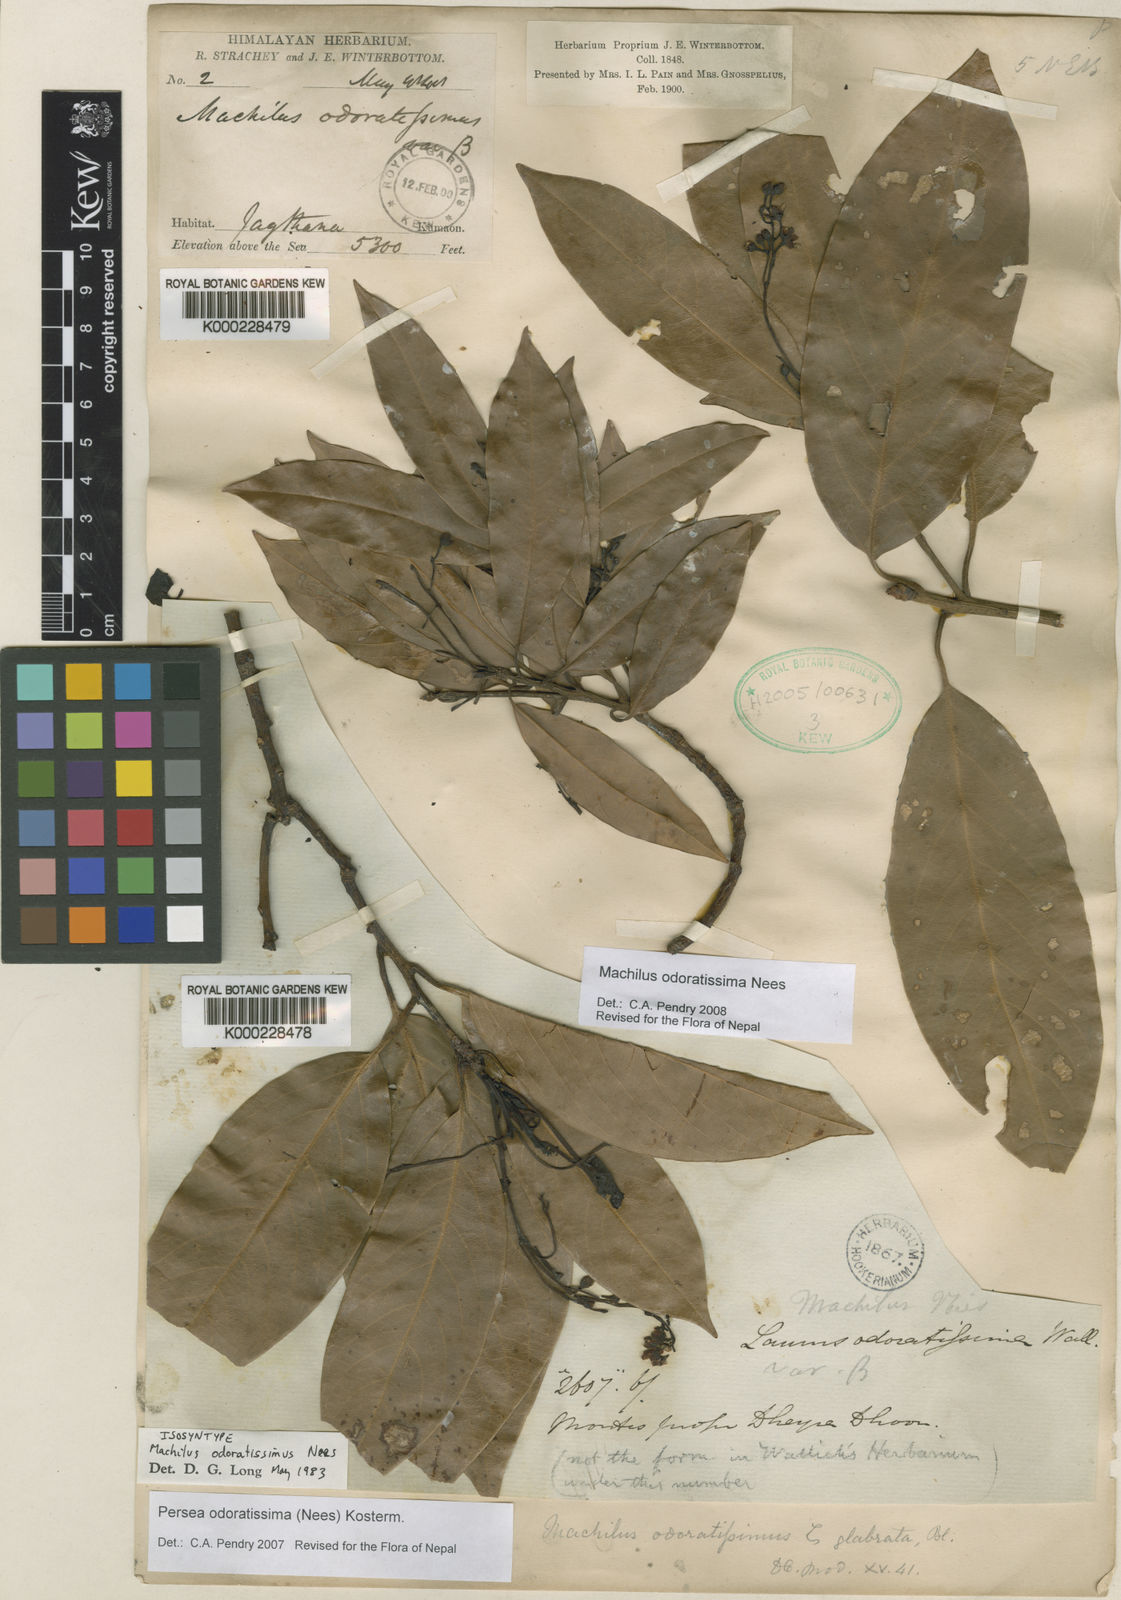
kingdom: Plantae
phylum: Tracheophyta
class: Magnoliopsida
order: Laurales
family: Lauraceae
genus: Machilus
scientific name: Machilus odoratissimus
